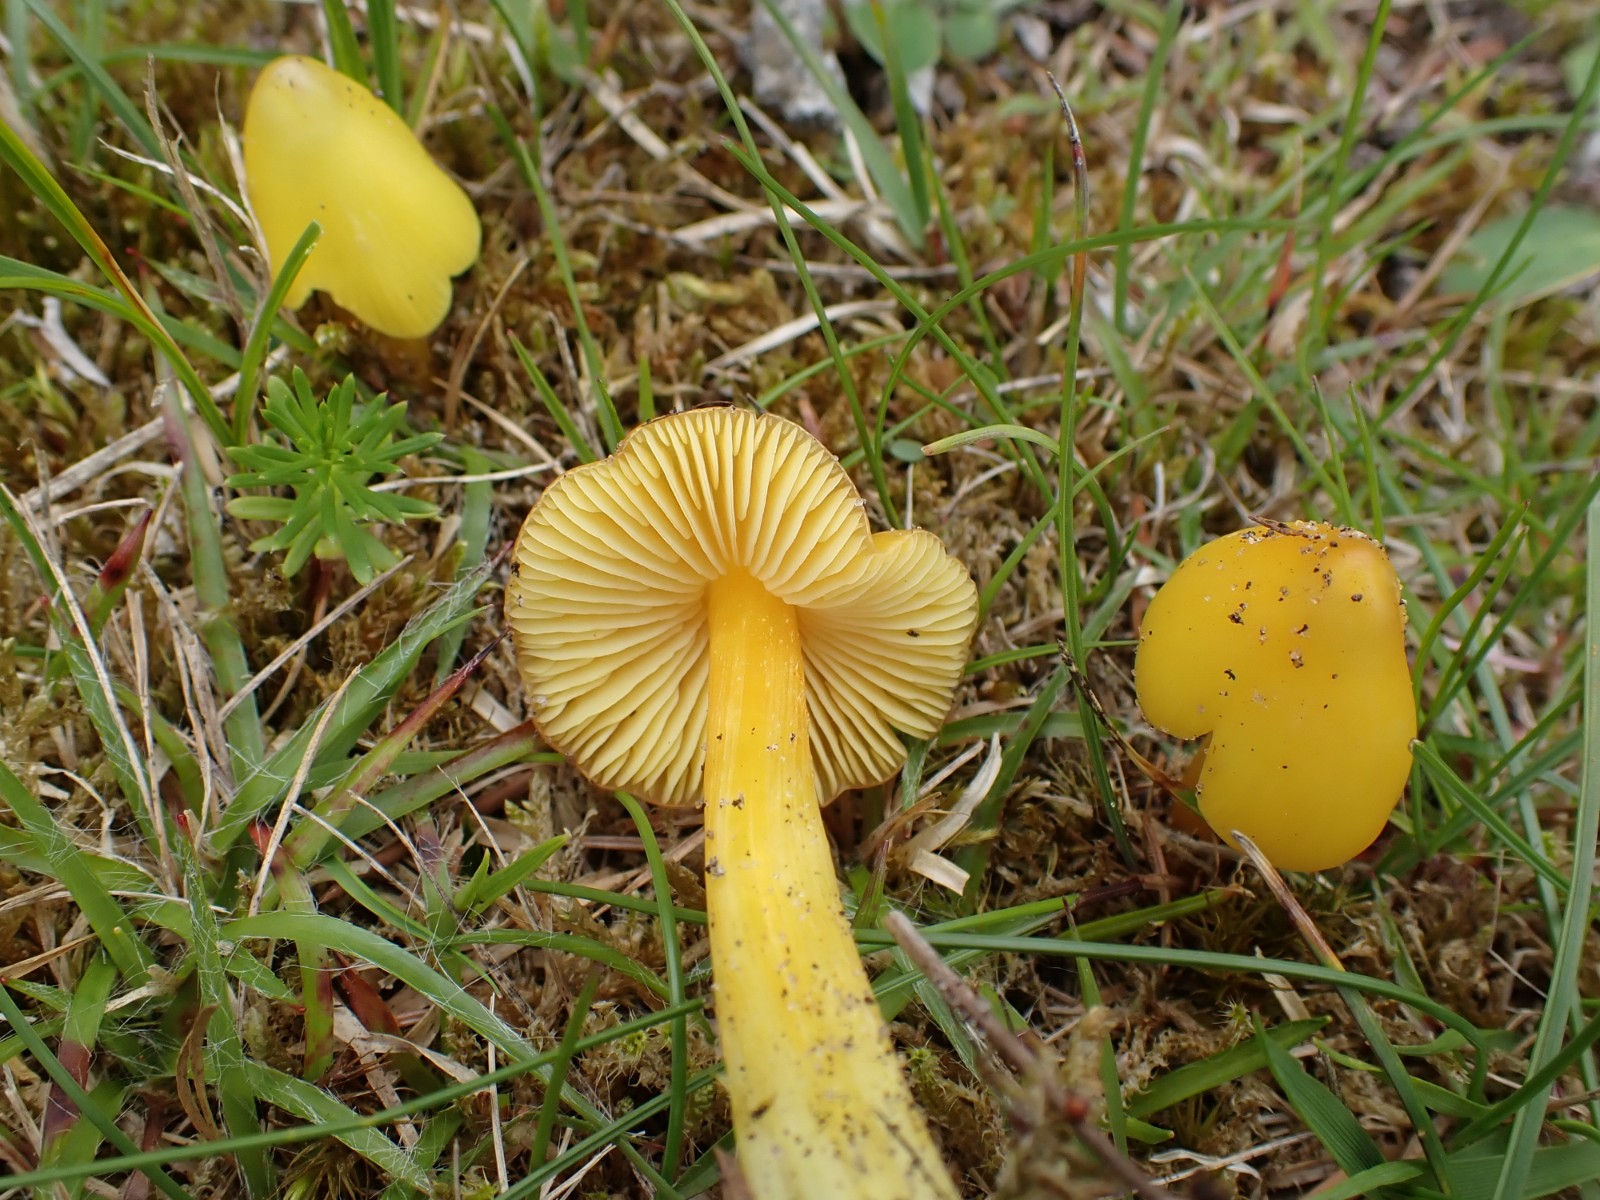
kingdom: Fungi
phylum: Basidiomycota
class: Agaricomycetes
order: Agaricales
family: Hygrophoraceae
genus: Hygrocybe
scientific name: Hygrocybe acutoconica
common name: spidspuklet vokshat
